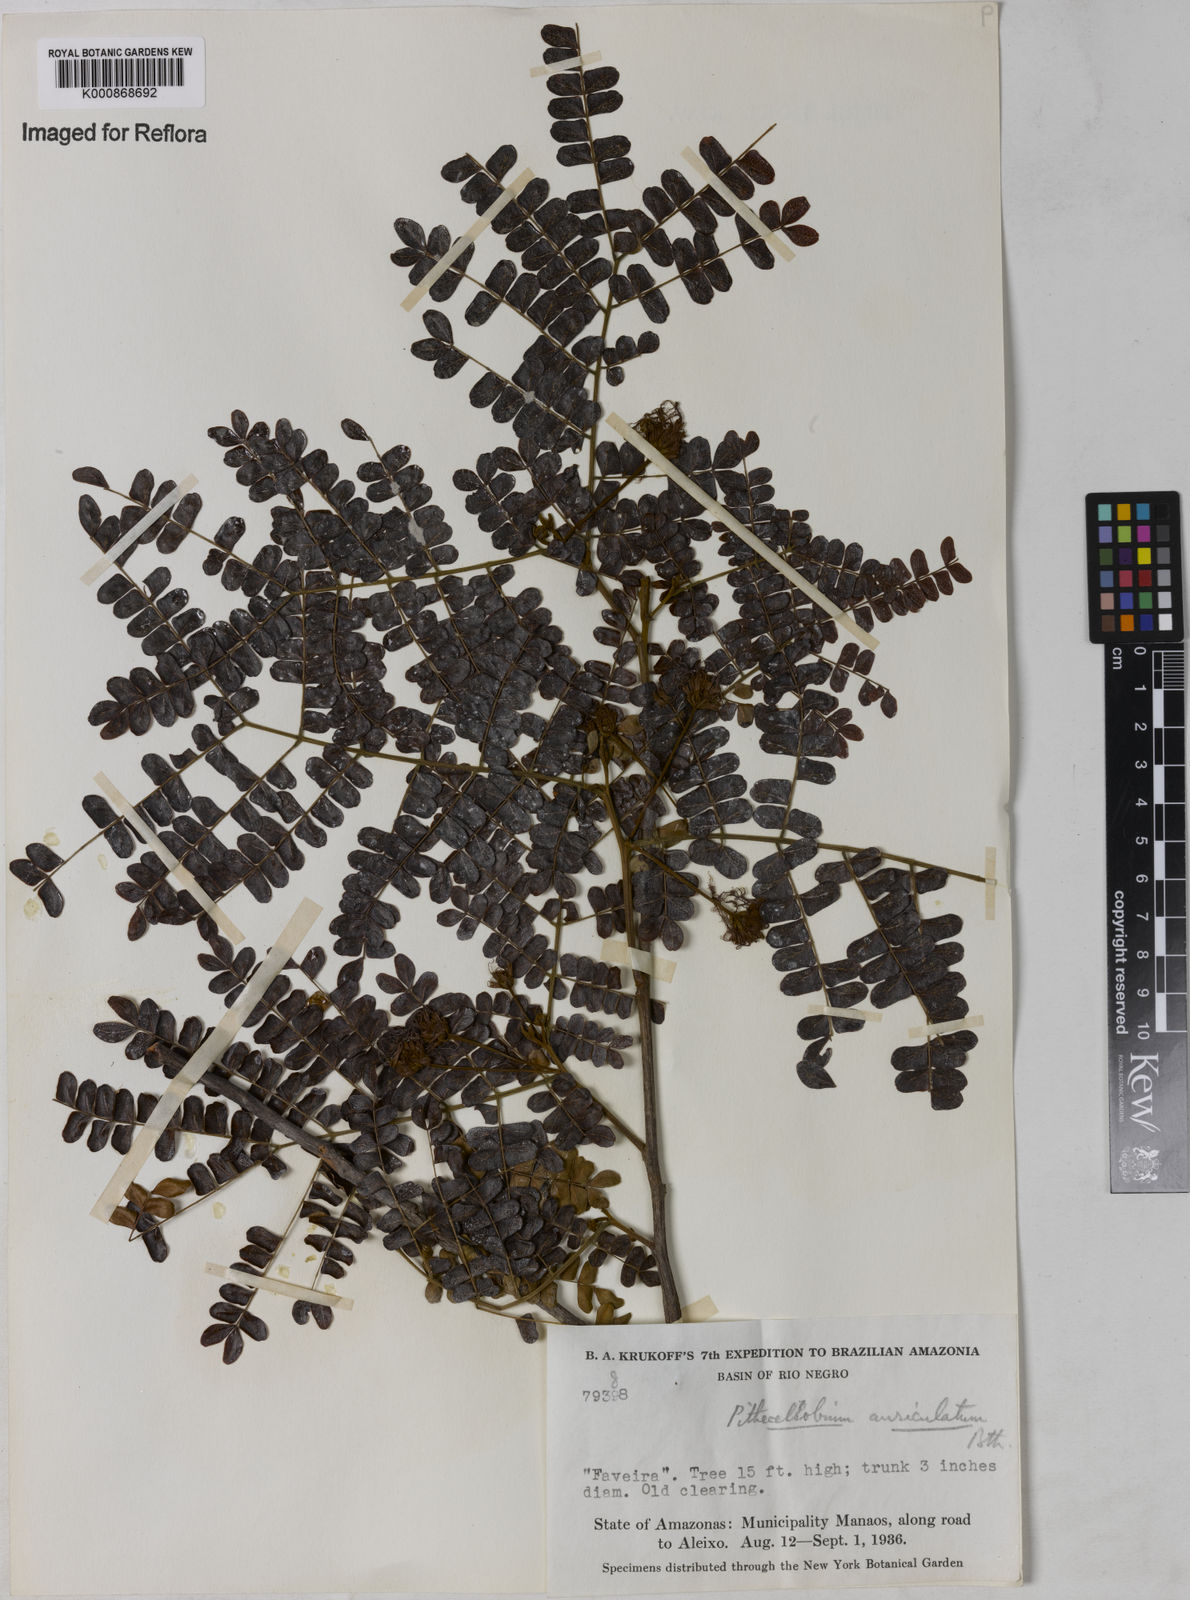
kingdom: Plantae
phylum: Tracheophyta
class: Magnoliopsida
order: Fabales
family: Fabaceae
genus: Jupunba
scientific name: Jupunba auriculata
